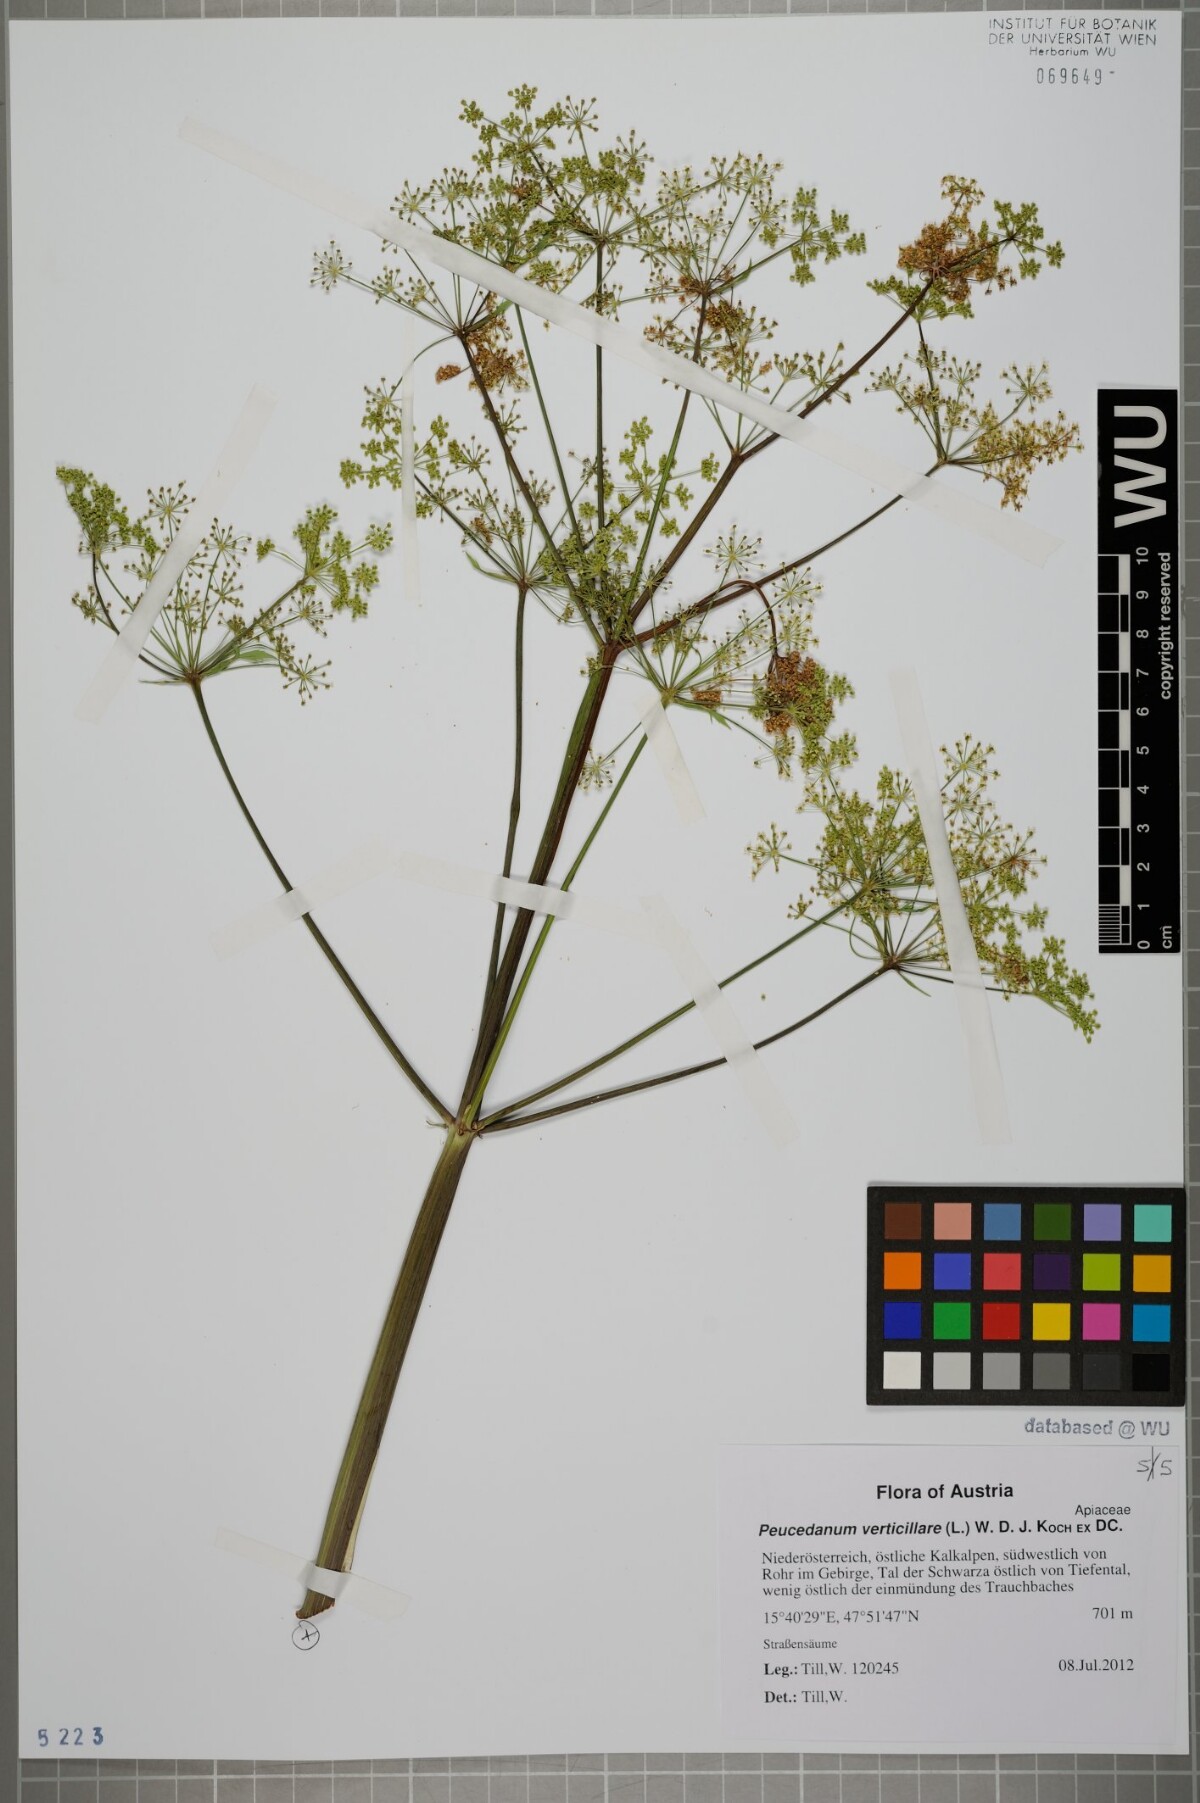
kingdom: Plantae
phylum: Tracheophyta
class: Magnoliopsida
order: Apiales
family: Apiaceae
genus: Tommasinia
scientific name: Tommasinia altissima
